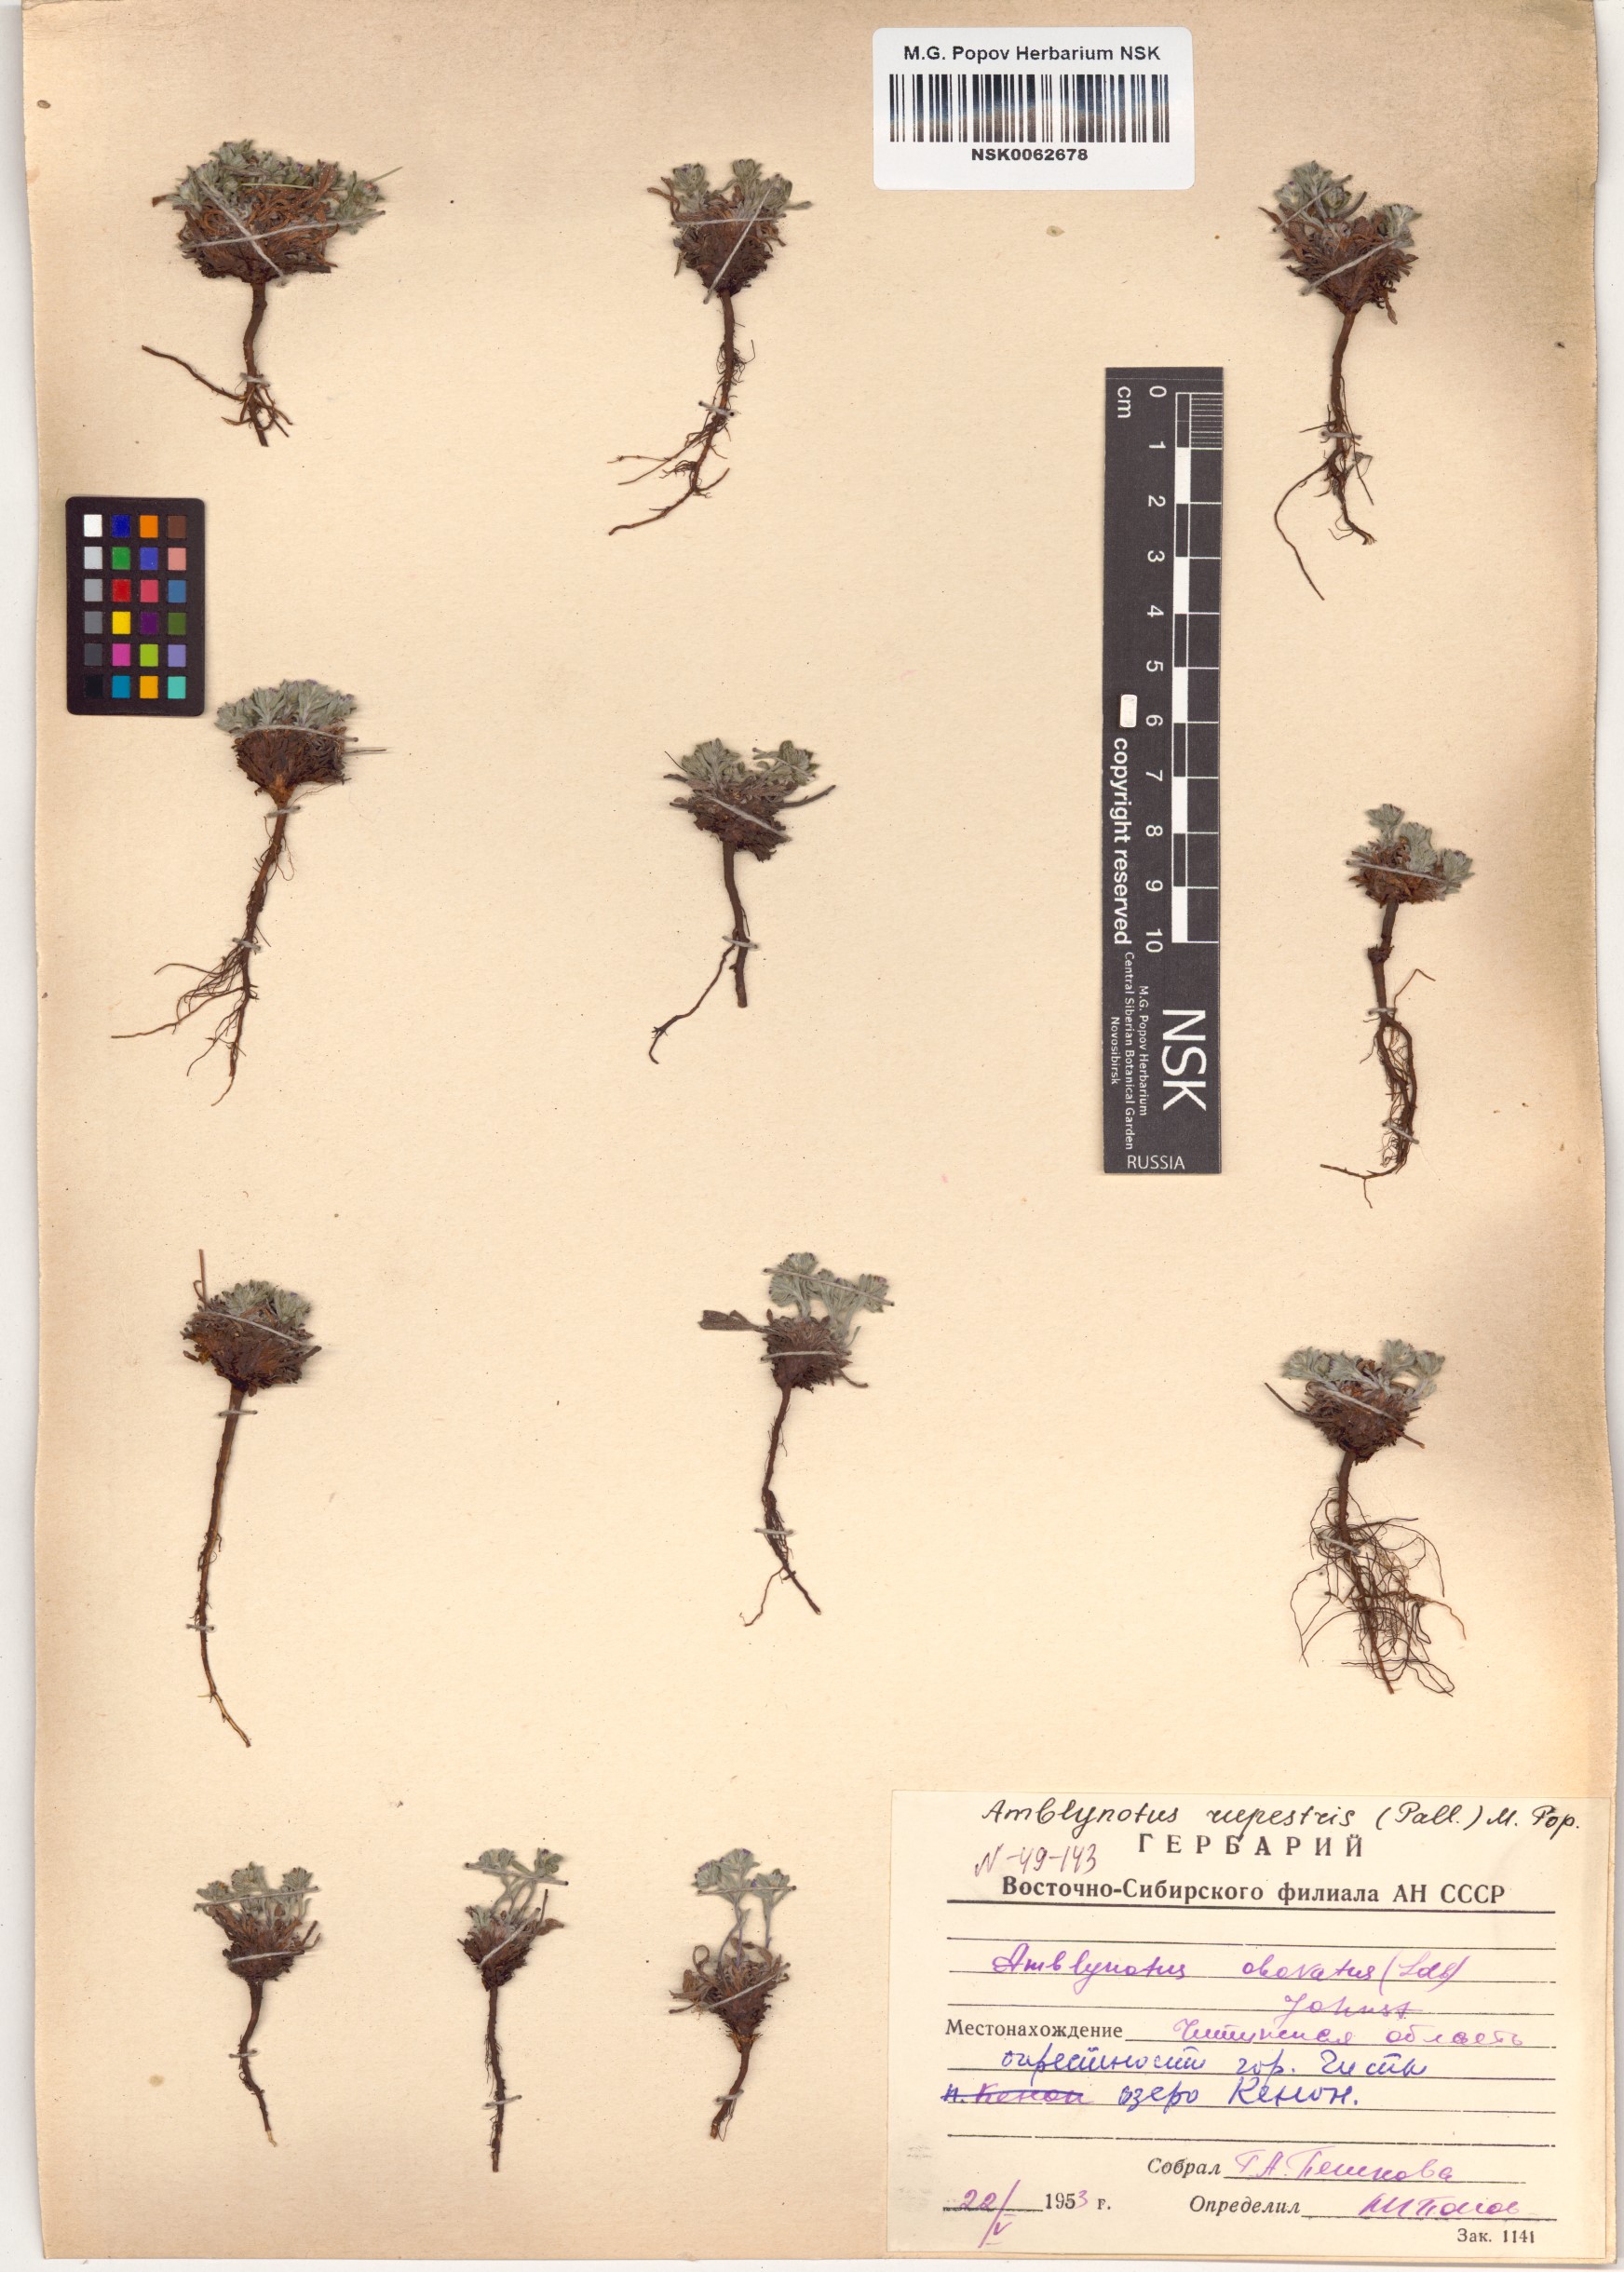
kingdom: Plantae
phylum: Tracheophyta
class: Magnoliopsida
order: Boraginales
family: Boraginaceae
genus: Eritrichium
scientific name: Eritrichium rupestre
